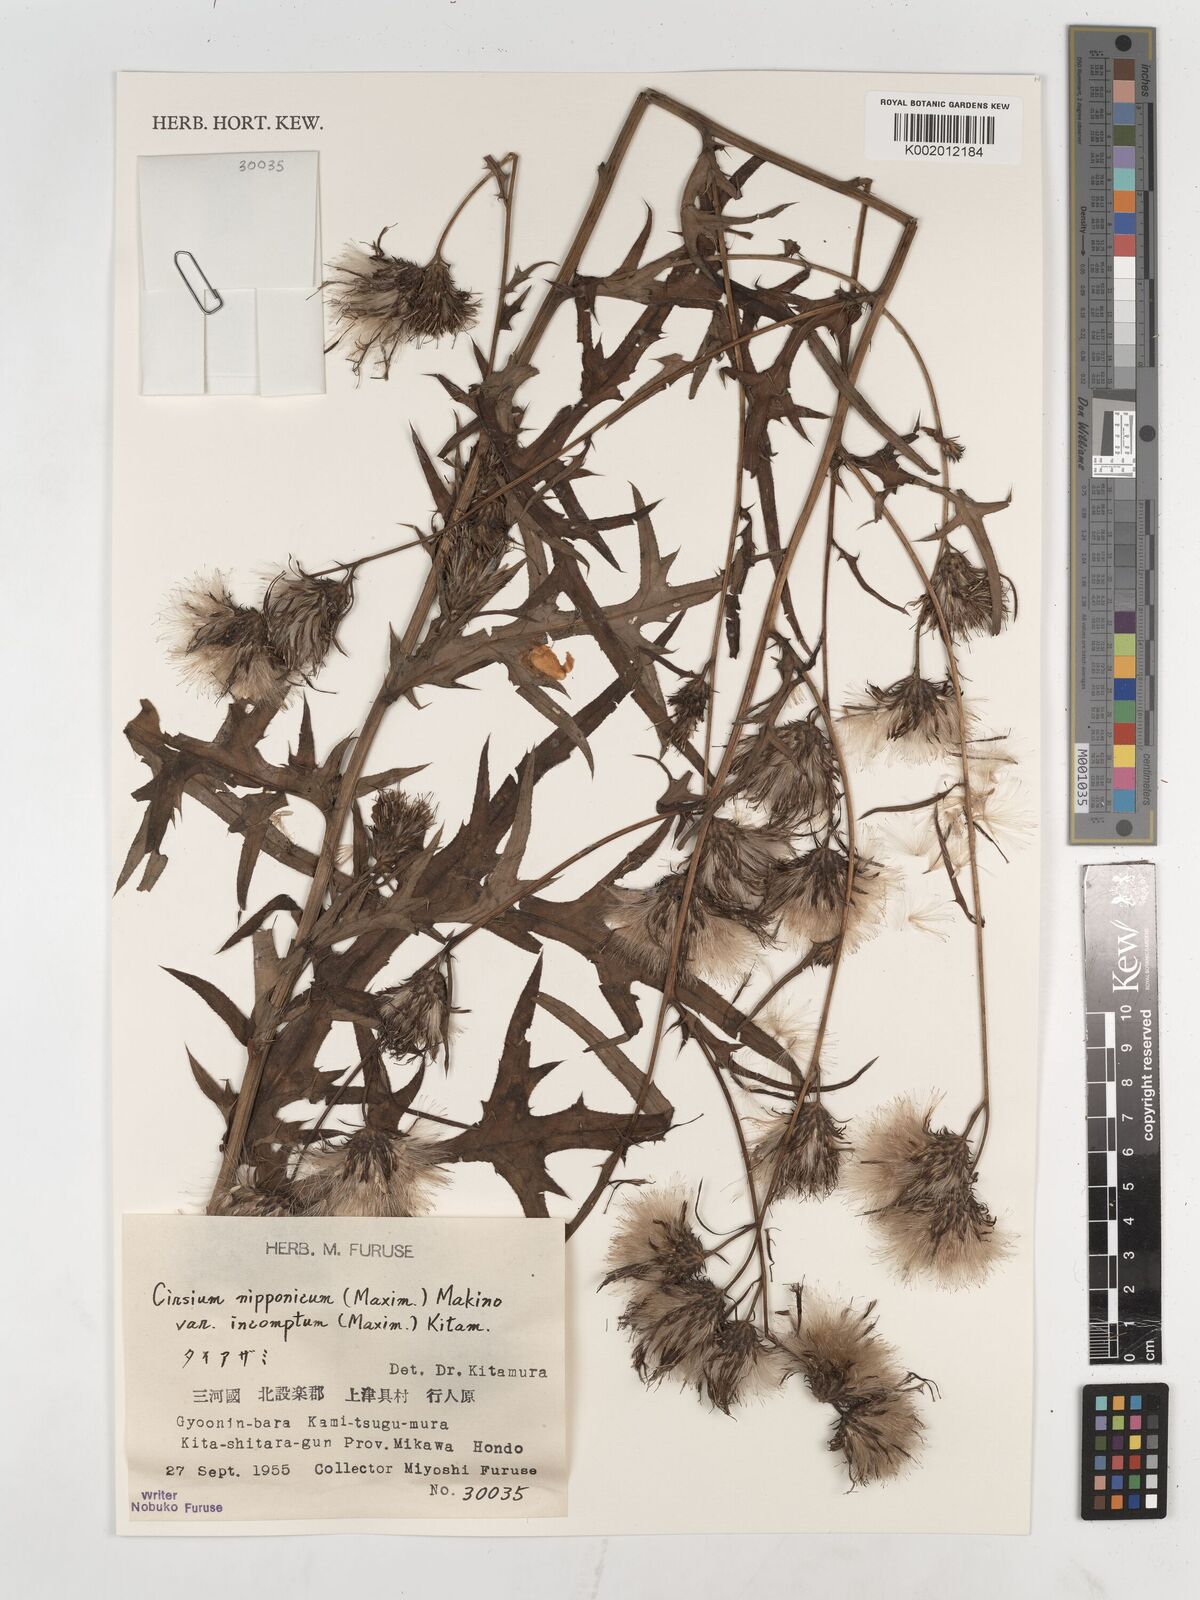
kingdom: Plantae
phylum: Tracheophyta
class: Magnoliopsida
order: Asterales
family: Asteraceae
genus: Cirsium
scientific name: Cirsium nipponicum
